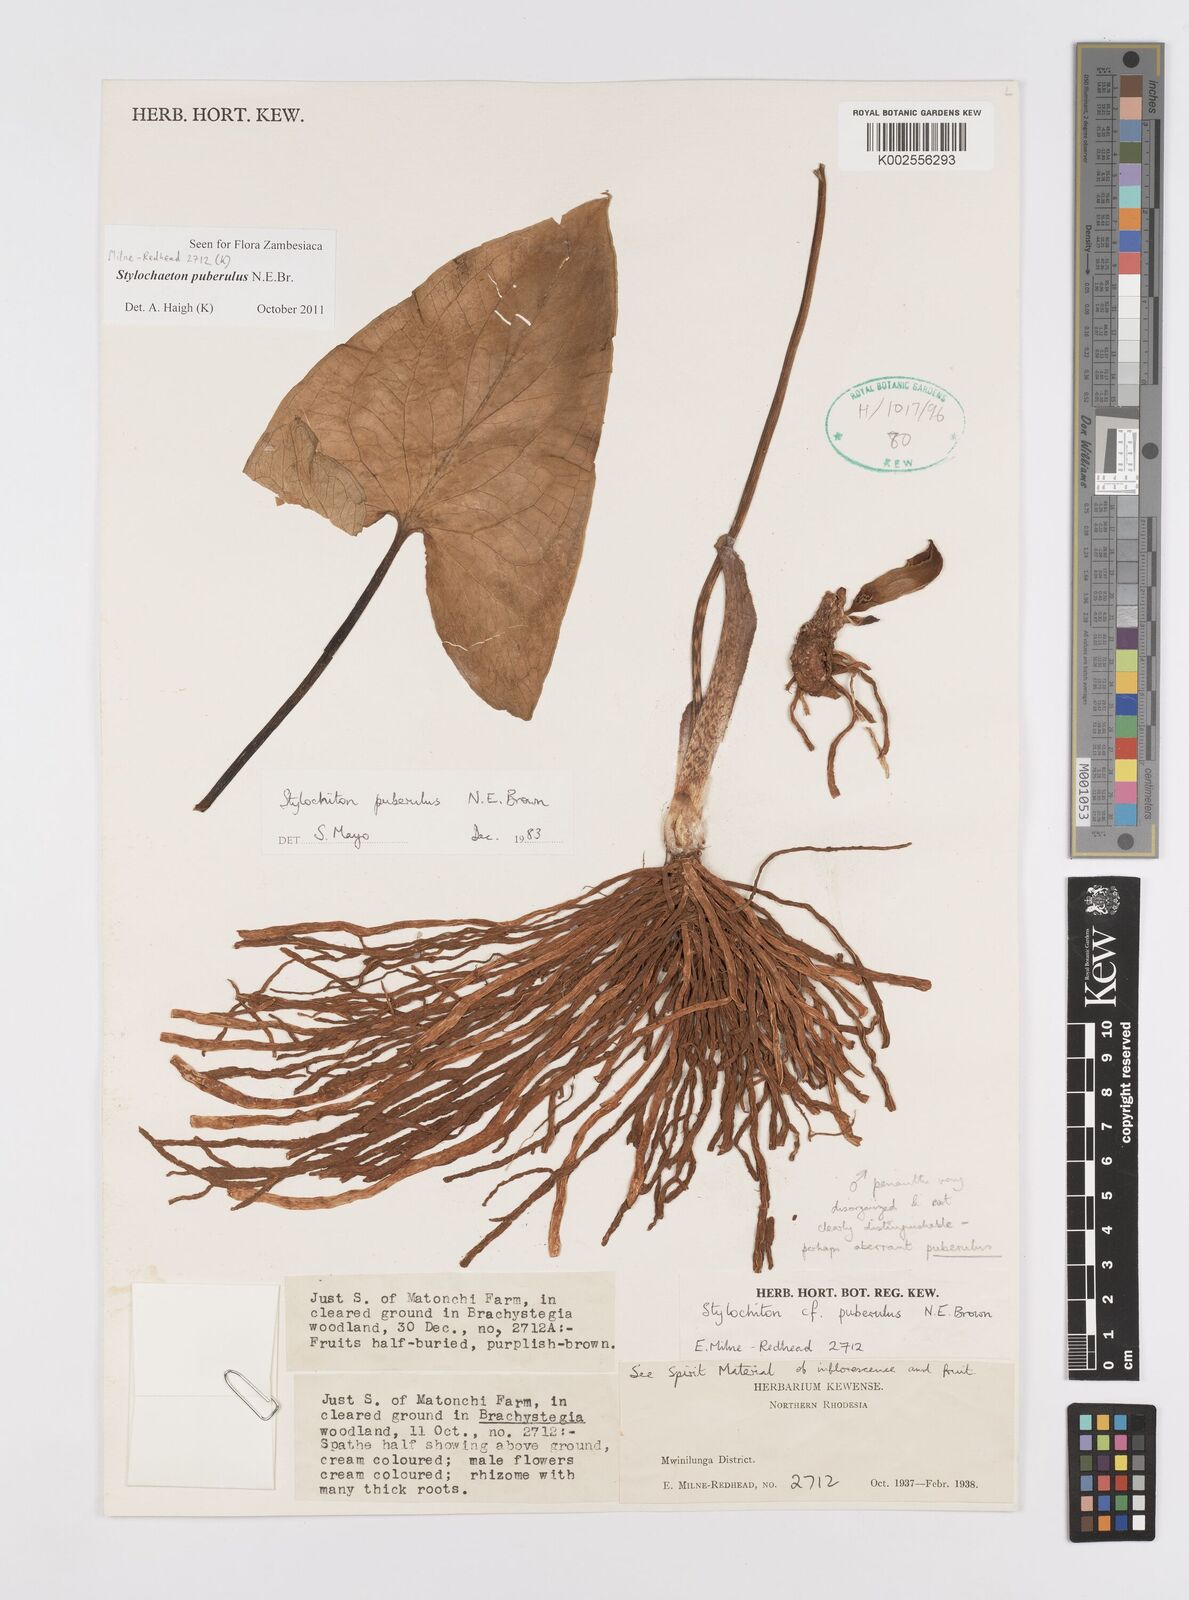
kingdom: Plantae
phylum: Tracheophyta
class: Liliopsida
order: Alismatales
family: Araceae
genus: Stylochaeton
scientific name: Stylochaeton puberulum
